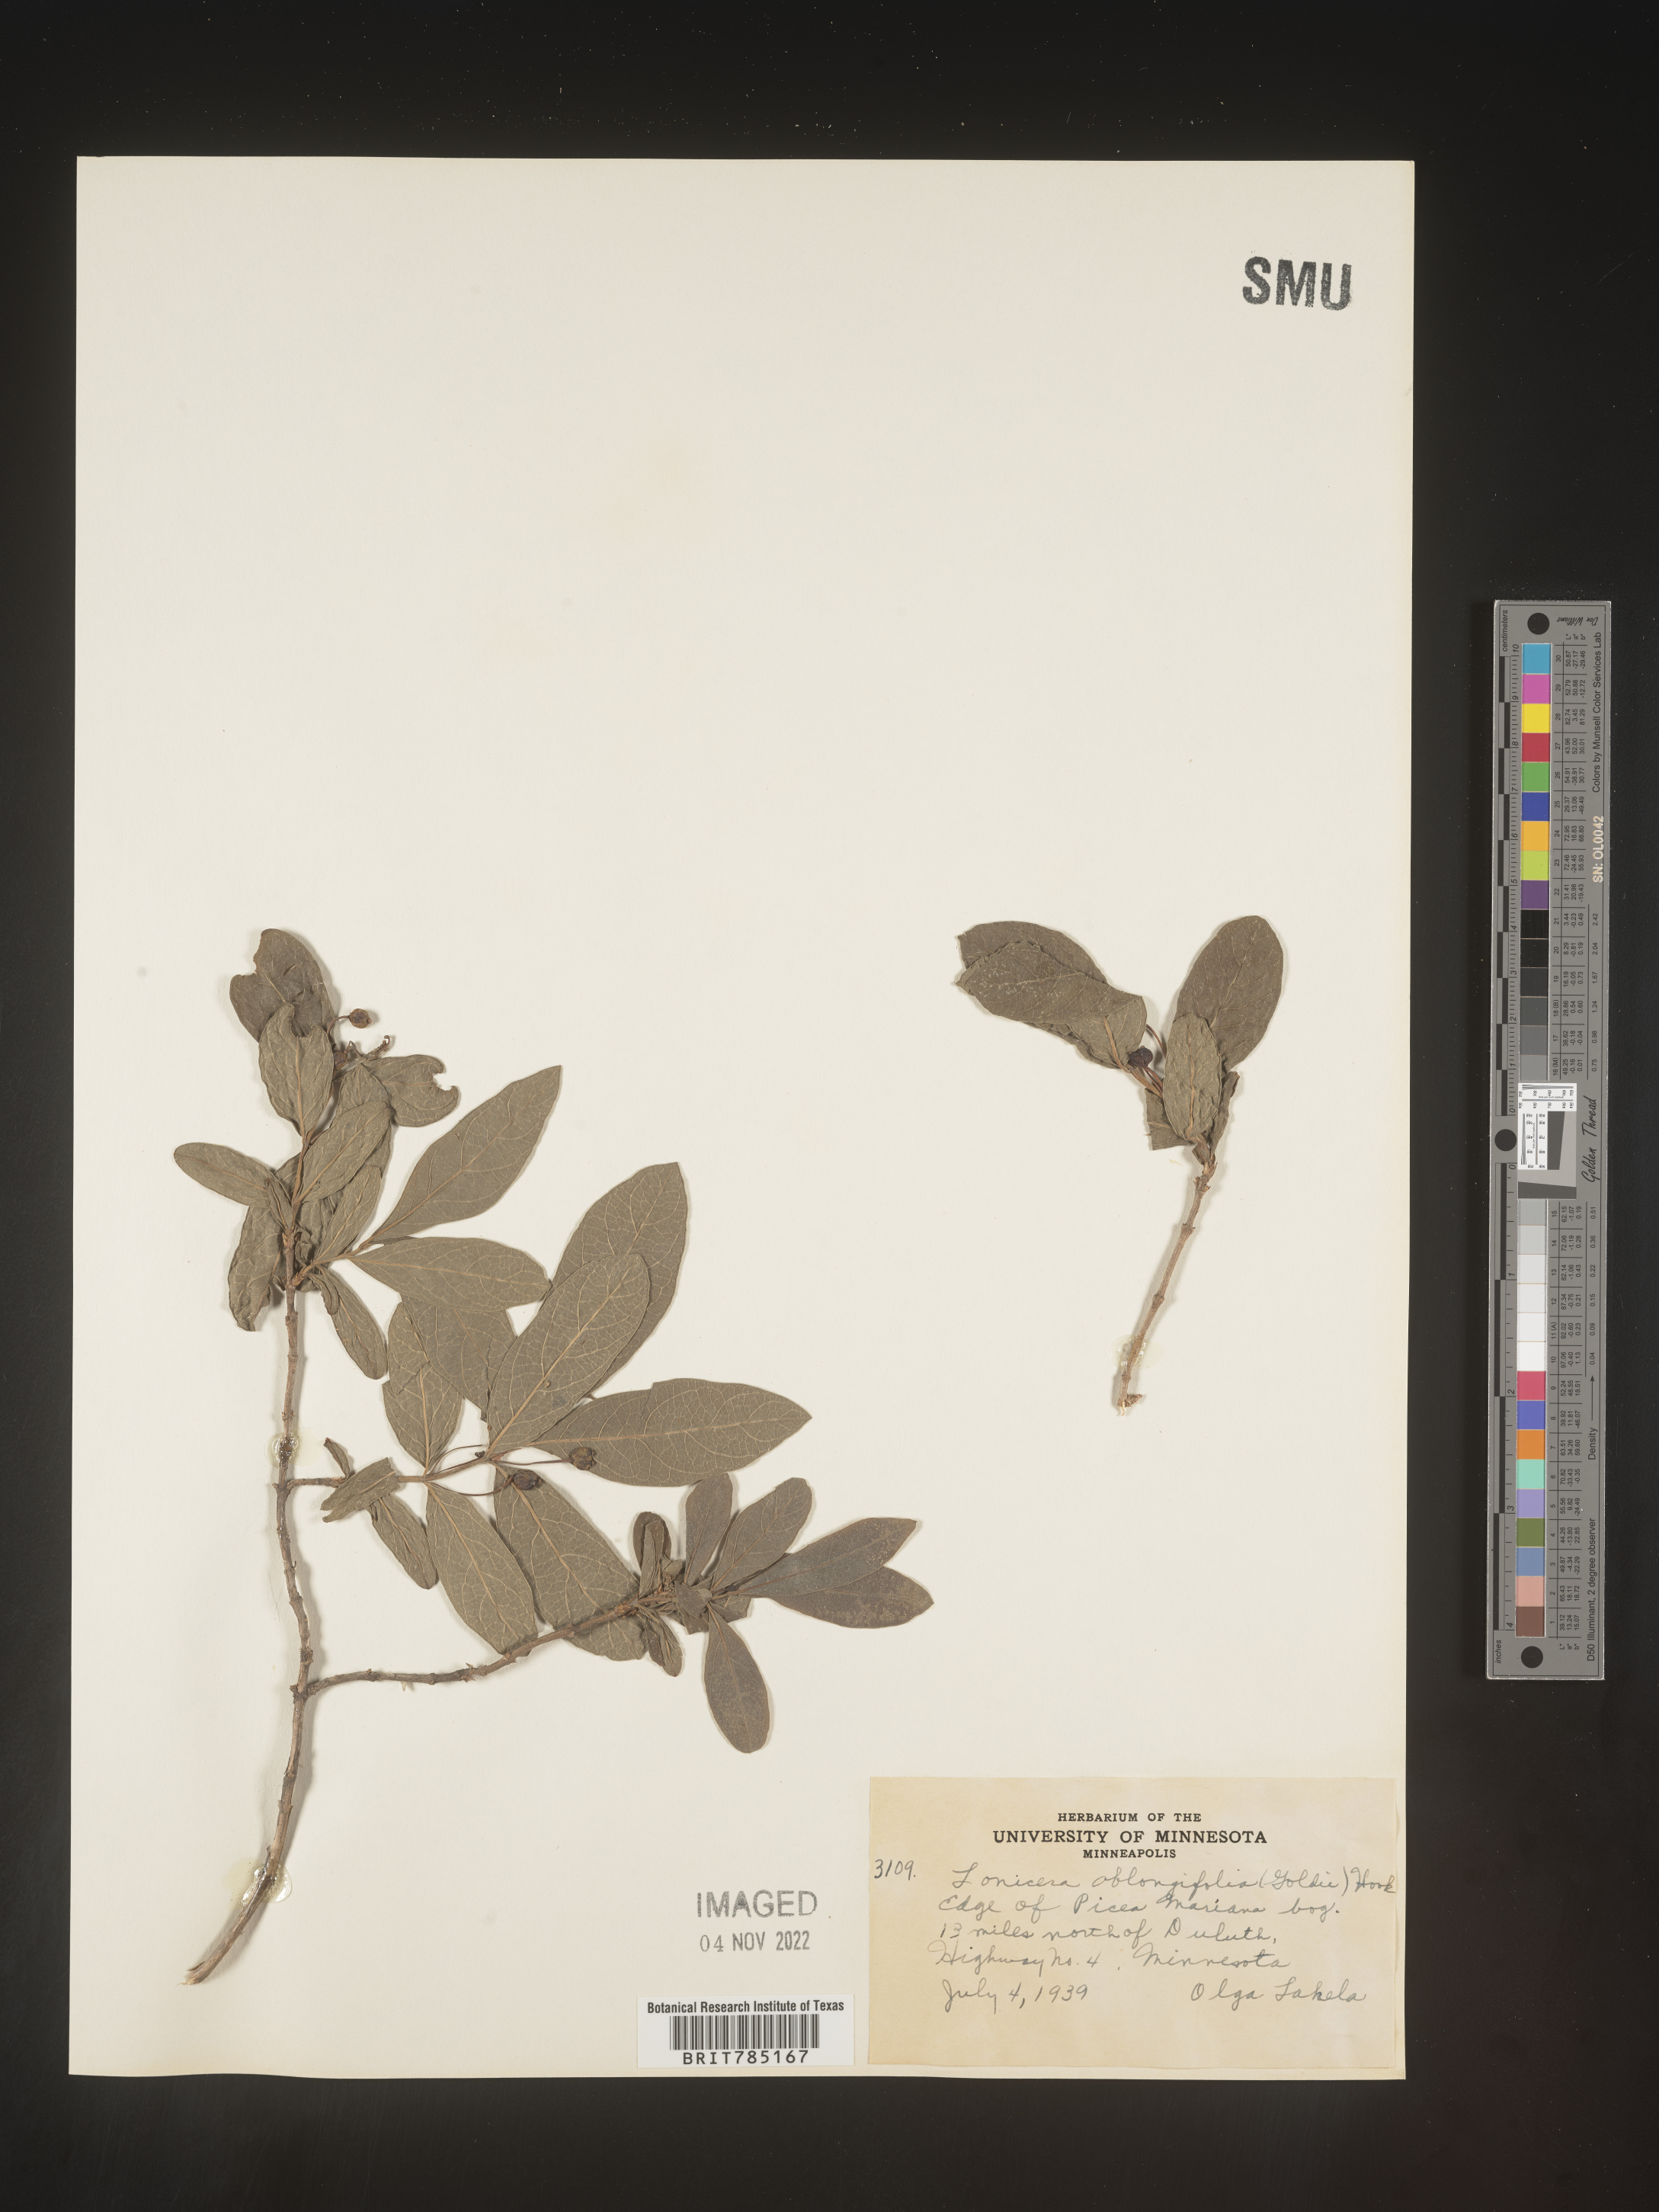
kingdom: Plantae
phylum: Tracheophyta
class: Magnoliopsida
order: Dipsacales
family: Caprifoliaceae
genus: Lonicera
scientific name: Lonicera
